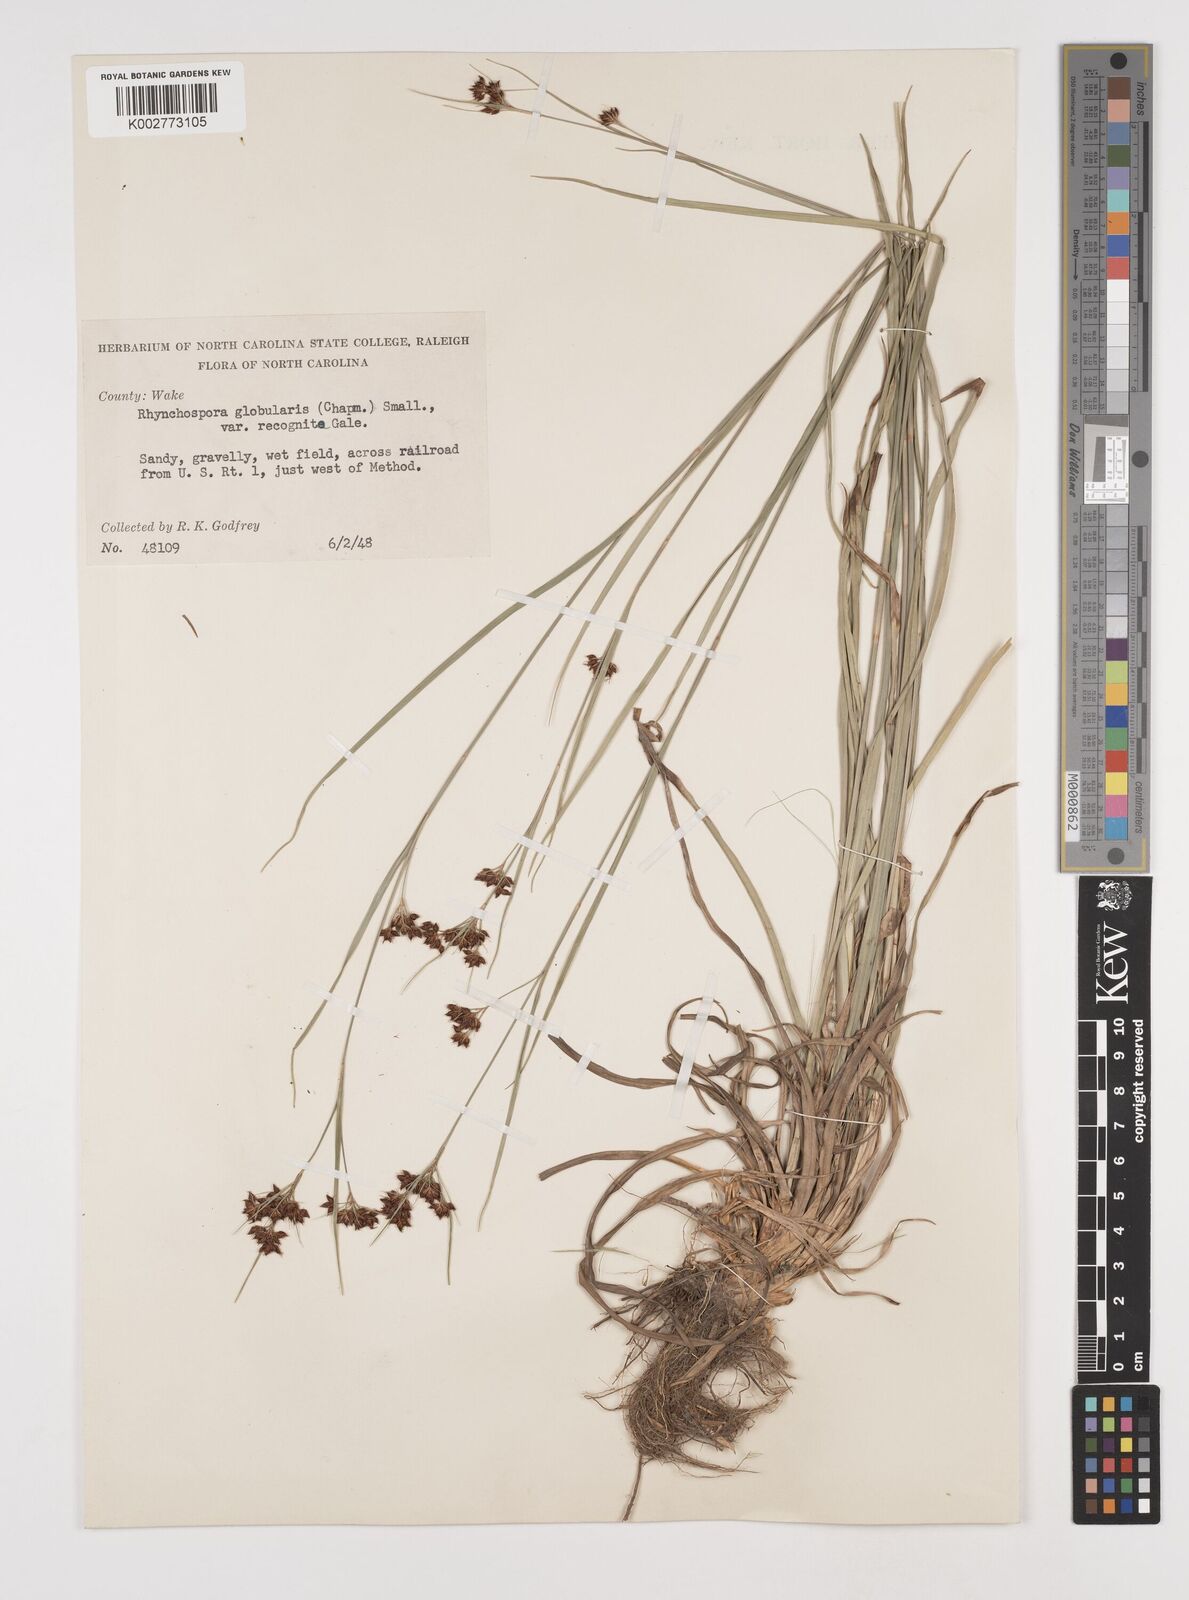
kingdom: Plantae
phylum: Tracheophyta
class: Liliopsida
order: Poales
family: Cyperaceae
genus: Rhynchospora
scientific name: Rhynchospora recognita
